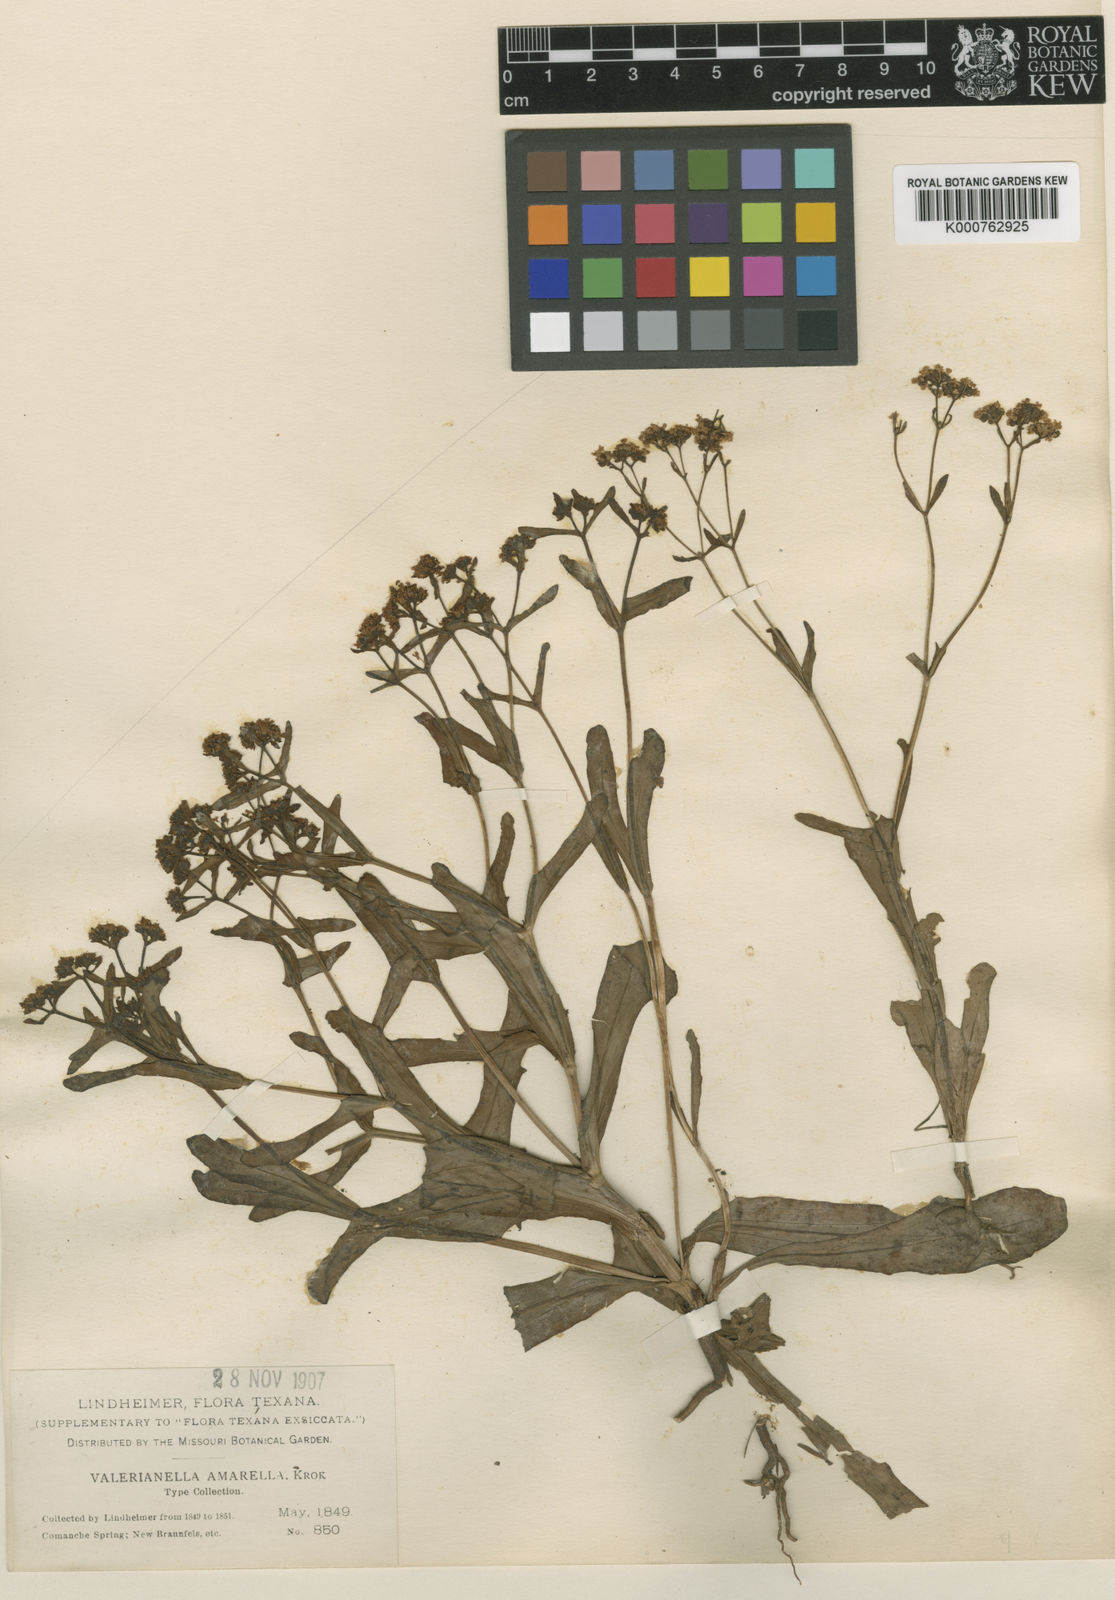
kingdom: Plantae
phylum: Tracheophyta
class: Magnoliopsida
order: Dipsacales
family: Caprifoliaceae
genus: Valerianella
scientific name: Valerianella amarella
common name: Hariy cornsalad
